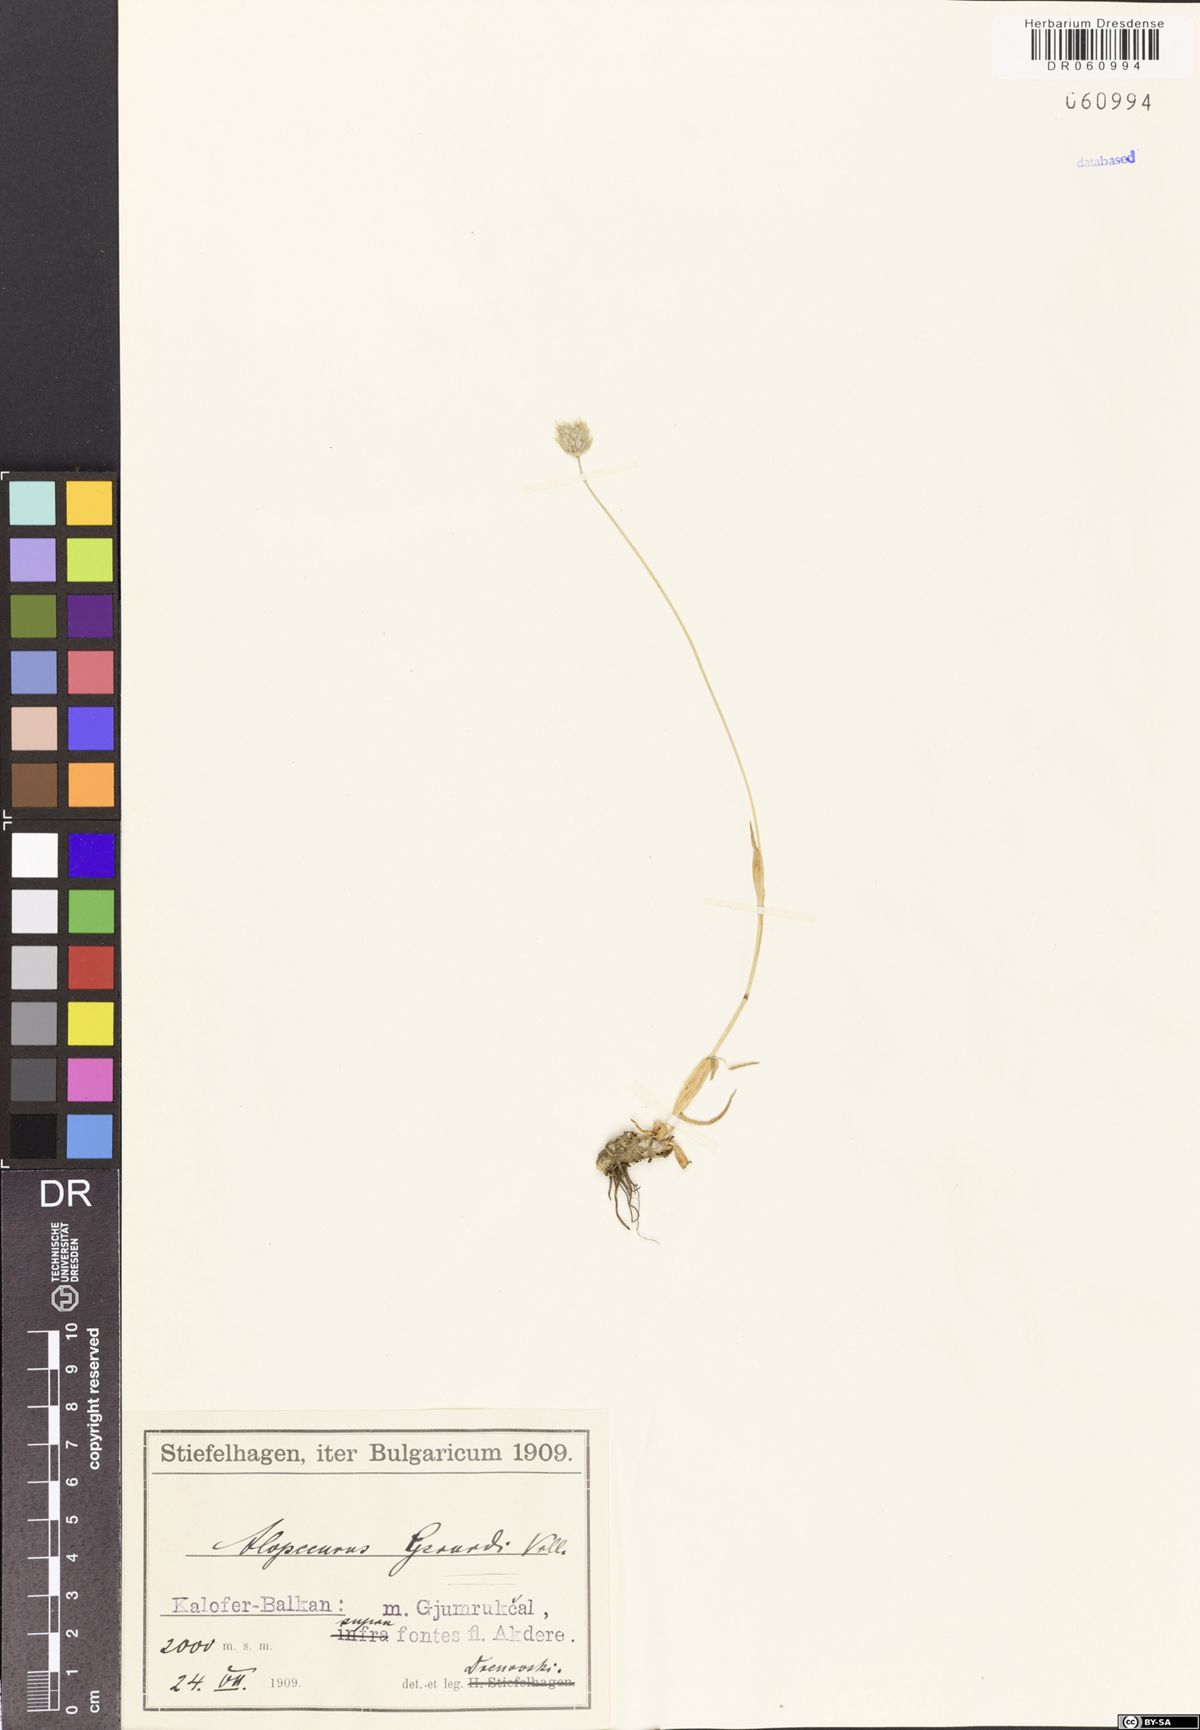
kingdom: Plantae
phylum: Tracheophyta
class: Liliopsida
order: Poales
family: Poaceae
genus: Alopecurus
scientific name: Alopecurus gerardii
